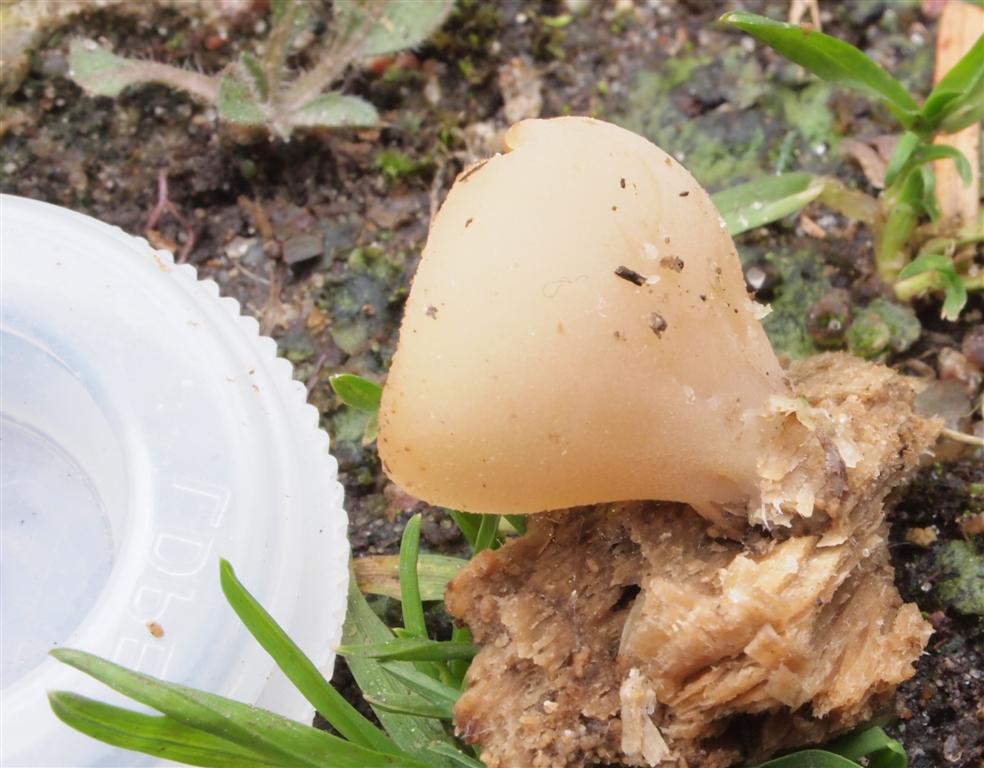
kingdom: Fungi
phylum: Ascomycota
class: Pezizomycetes
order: Pezizales
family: Pezizaceae
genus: Peziza
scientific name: Peziza varia
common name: Ved-bægersvamp
